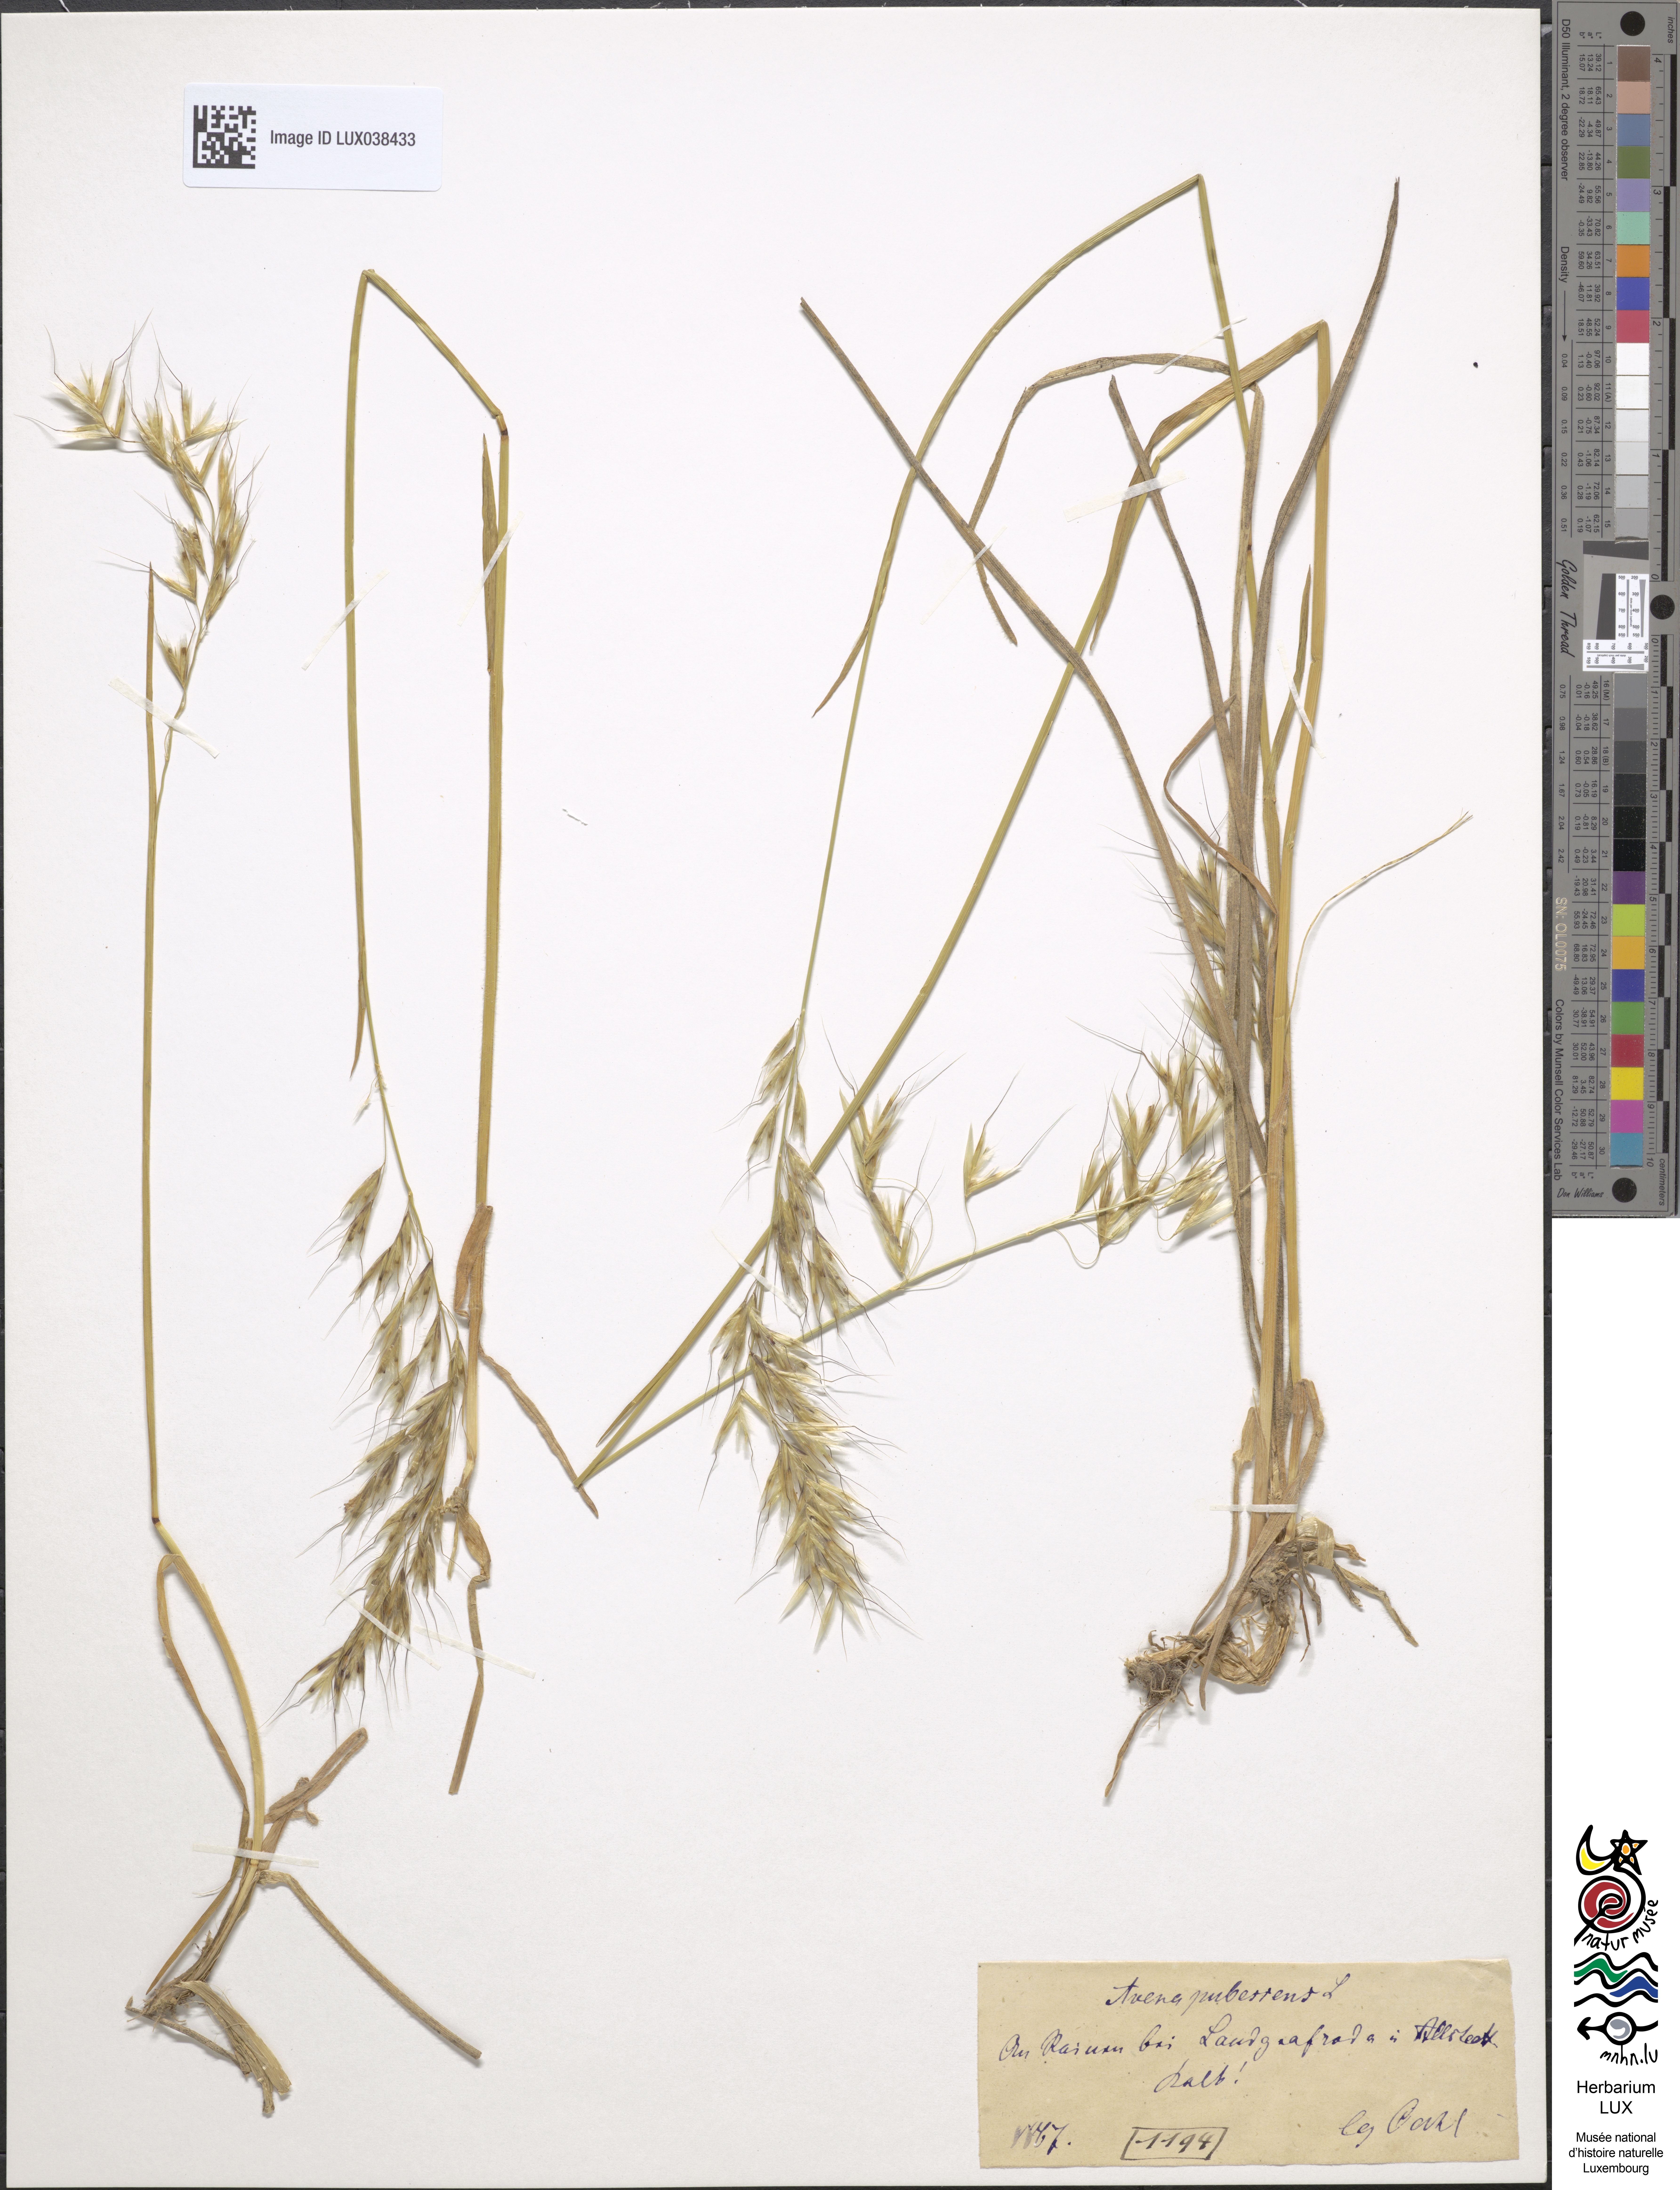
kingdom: Plantae
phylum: Tracheophyta
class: Liliopsida
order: Poales
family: Poaceae
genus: Avenula
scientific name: Avenula pubescens
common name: Downy alpine oatgrass
